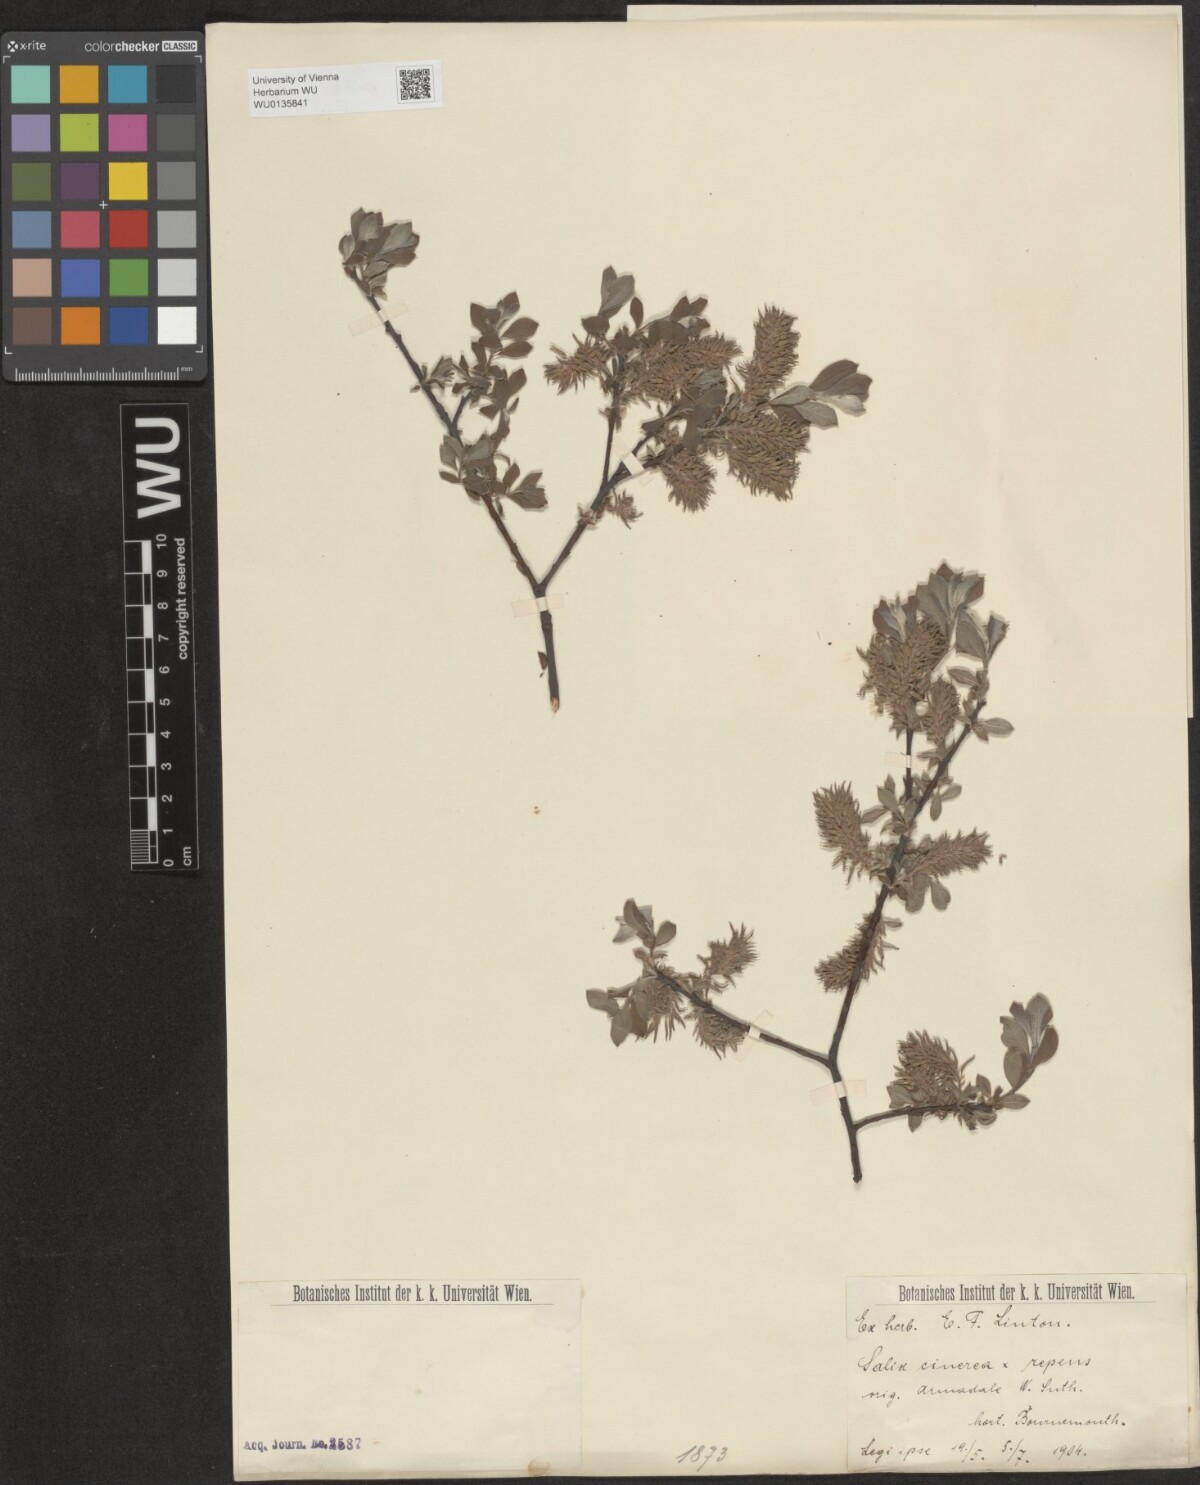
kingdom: Plantae
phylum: Tracheophyta
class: Magnoliopsida
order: Malpighiales
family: Salicaceae
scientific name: Salicaceae
